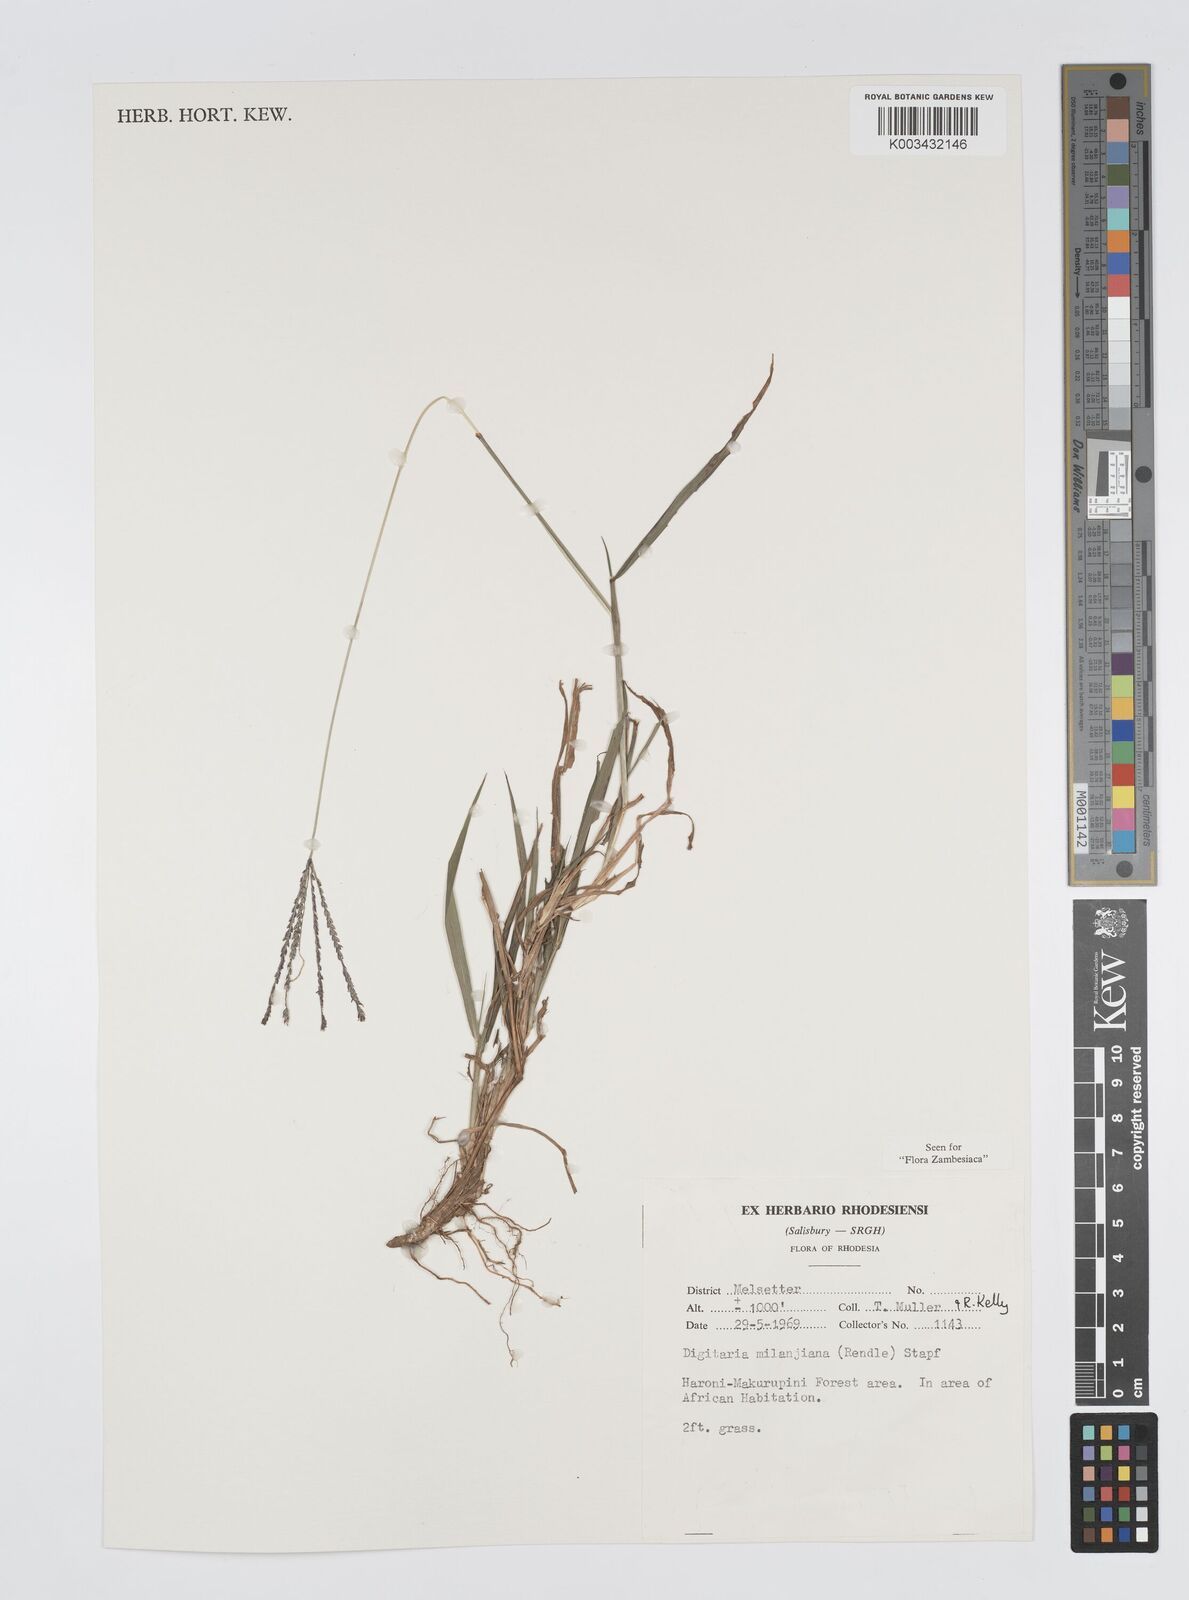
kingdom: Plantae
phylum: Tracheophyta
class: Liliopsida
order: Poales
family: Poaceae
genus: Digitaria
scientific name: Digitaria milanjiana
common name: Madagascar crabgrass
